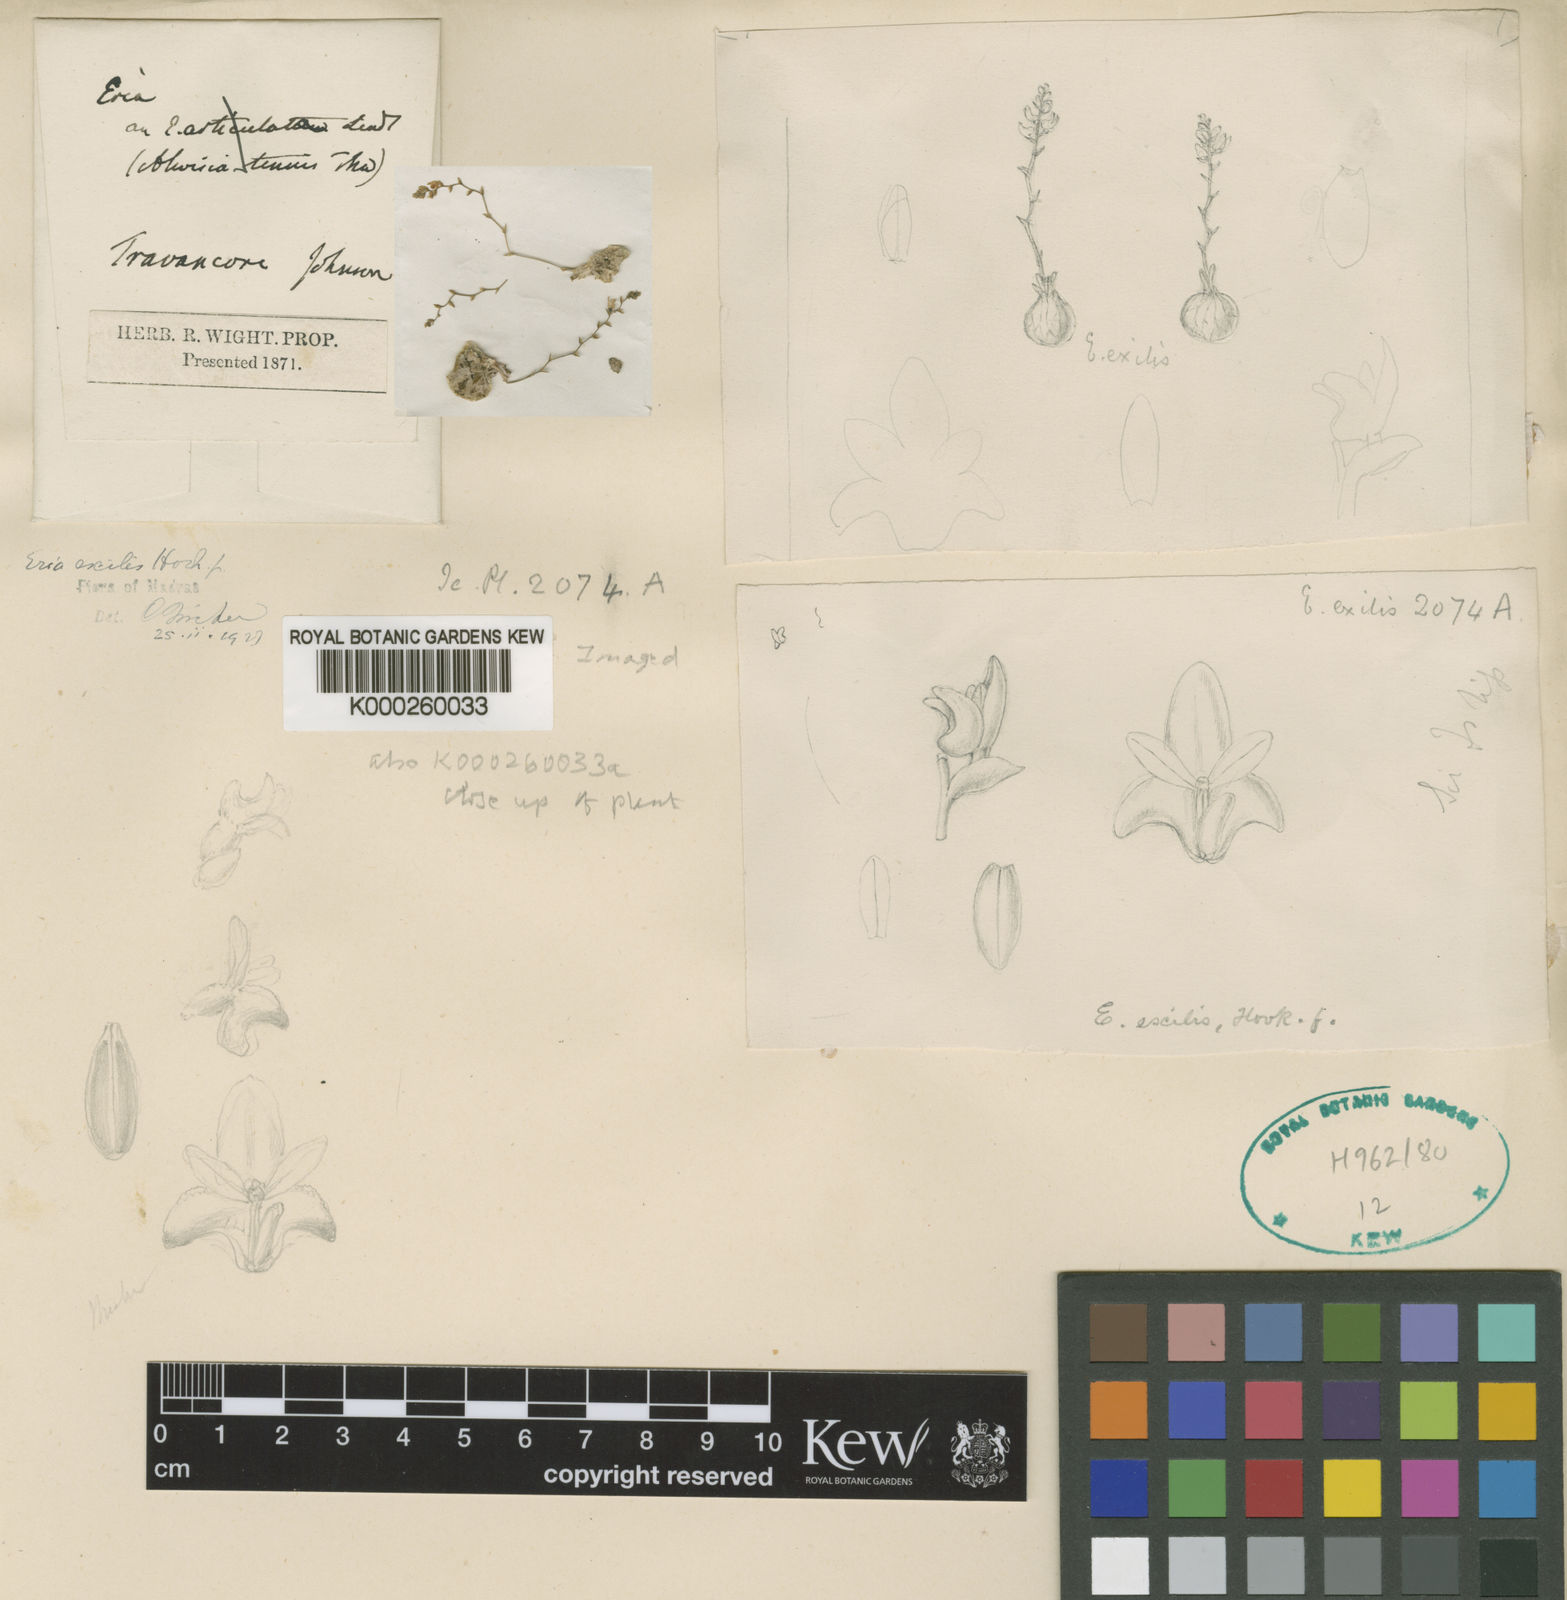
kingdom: Plantae
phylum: Tracheophyta
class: Liliopsida
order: Asparagales
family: Orchidaceae
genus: Porpax
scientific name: Porpax exilis
